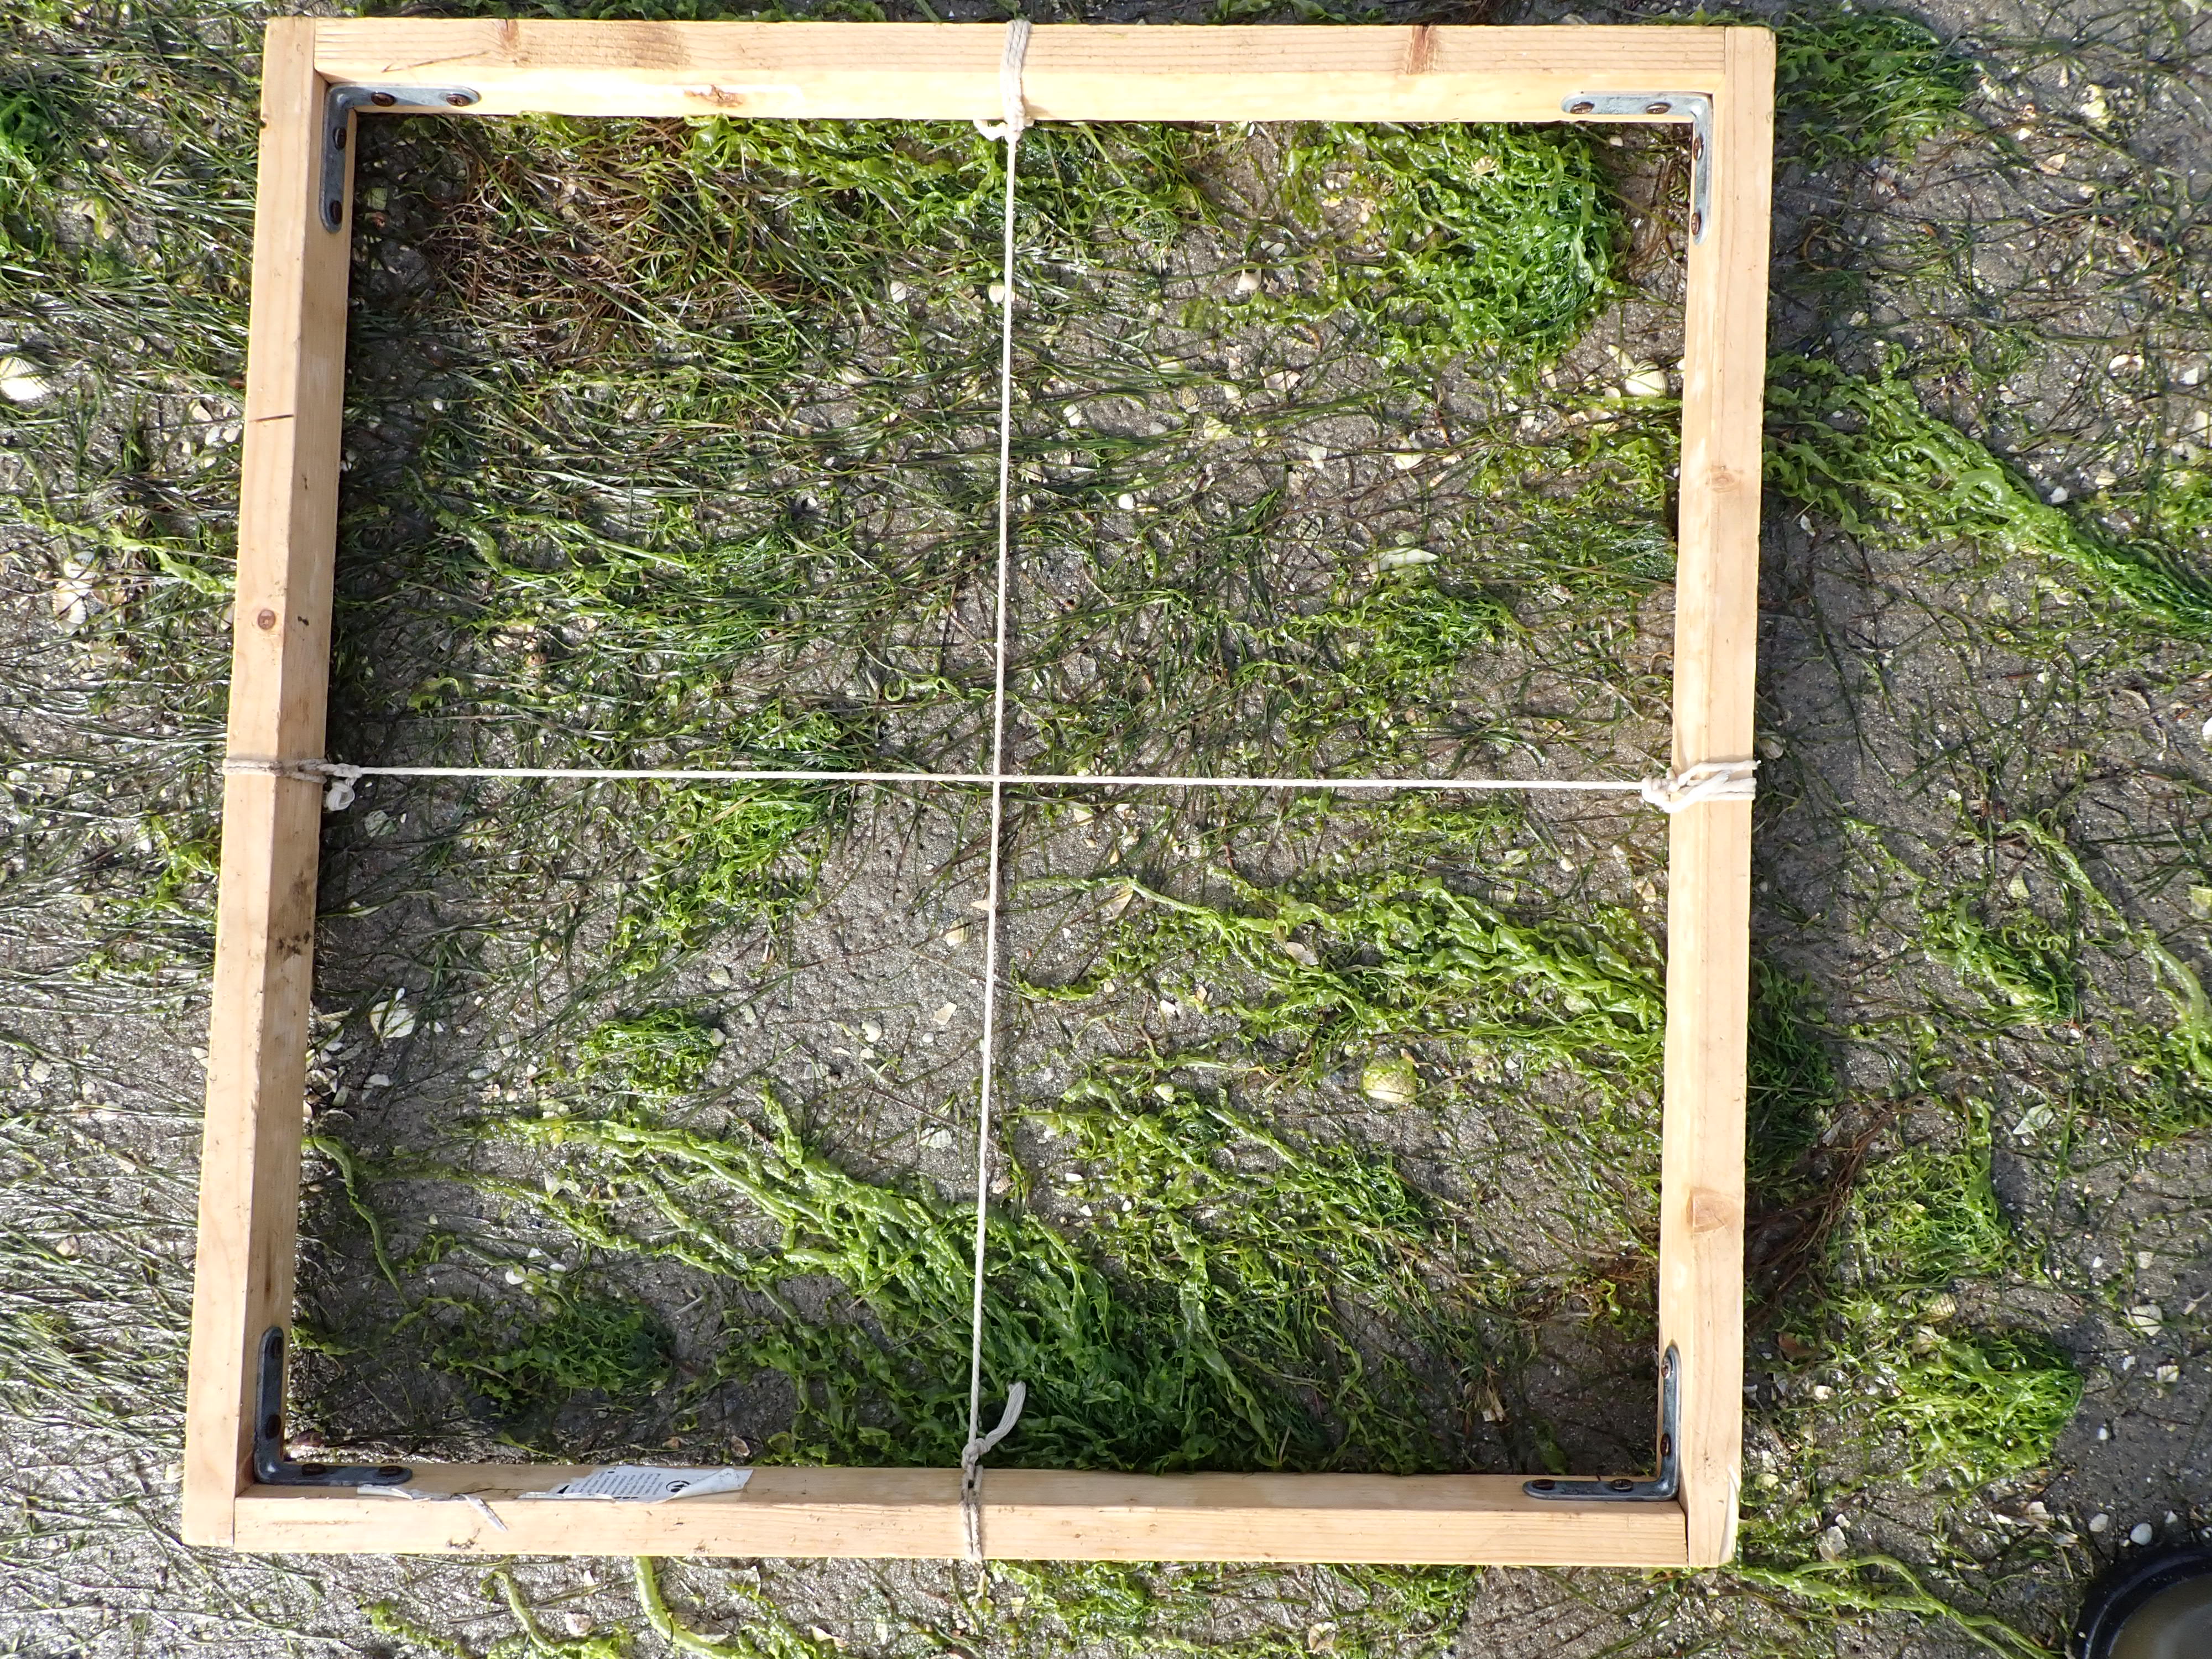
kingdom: Plantae
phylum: Tracheophyta
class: Liliopsida
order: Alismatales
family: Zosteraceae
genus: Zostera
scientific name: Zostera noltii
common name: Dwarf eelgrass
